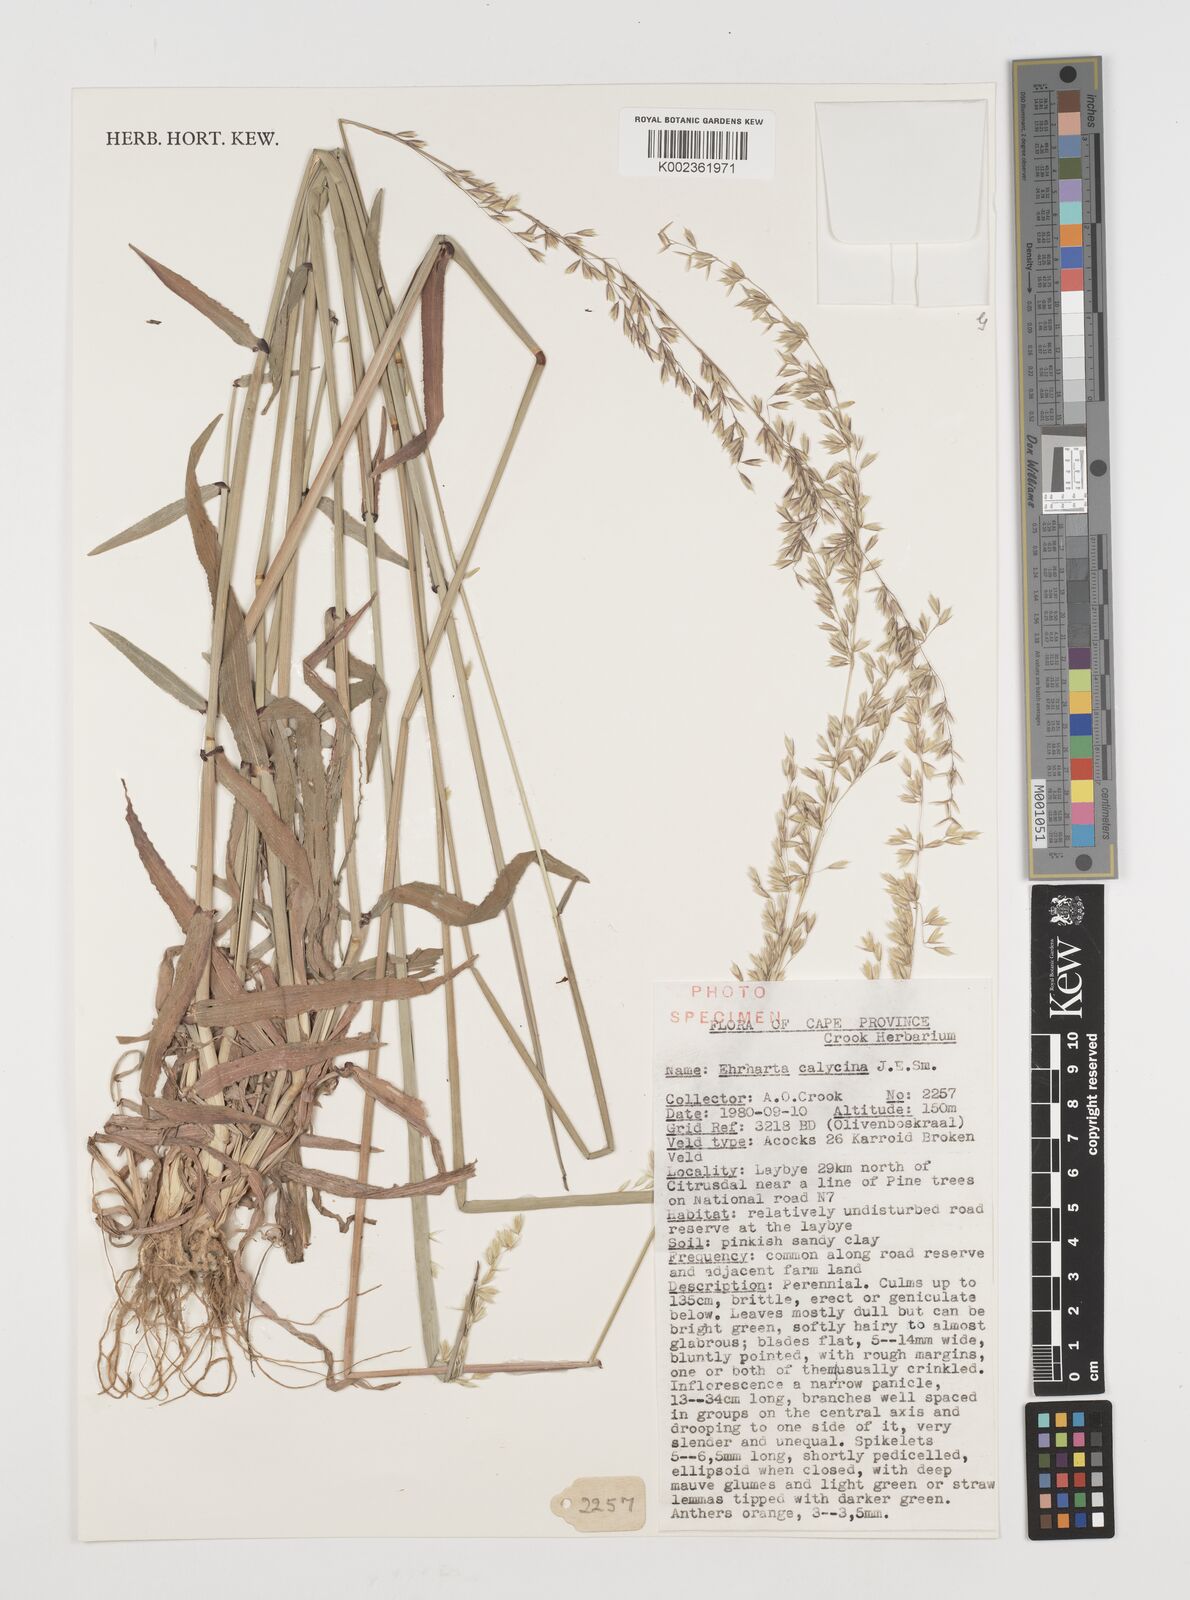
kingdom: Plantae
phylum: Tracheophyta
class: Liliopsida
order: Poales
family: Poaceae
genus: Ehrharta
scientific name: Ehrharta calycina
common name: Perennial veldtgrass
